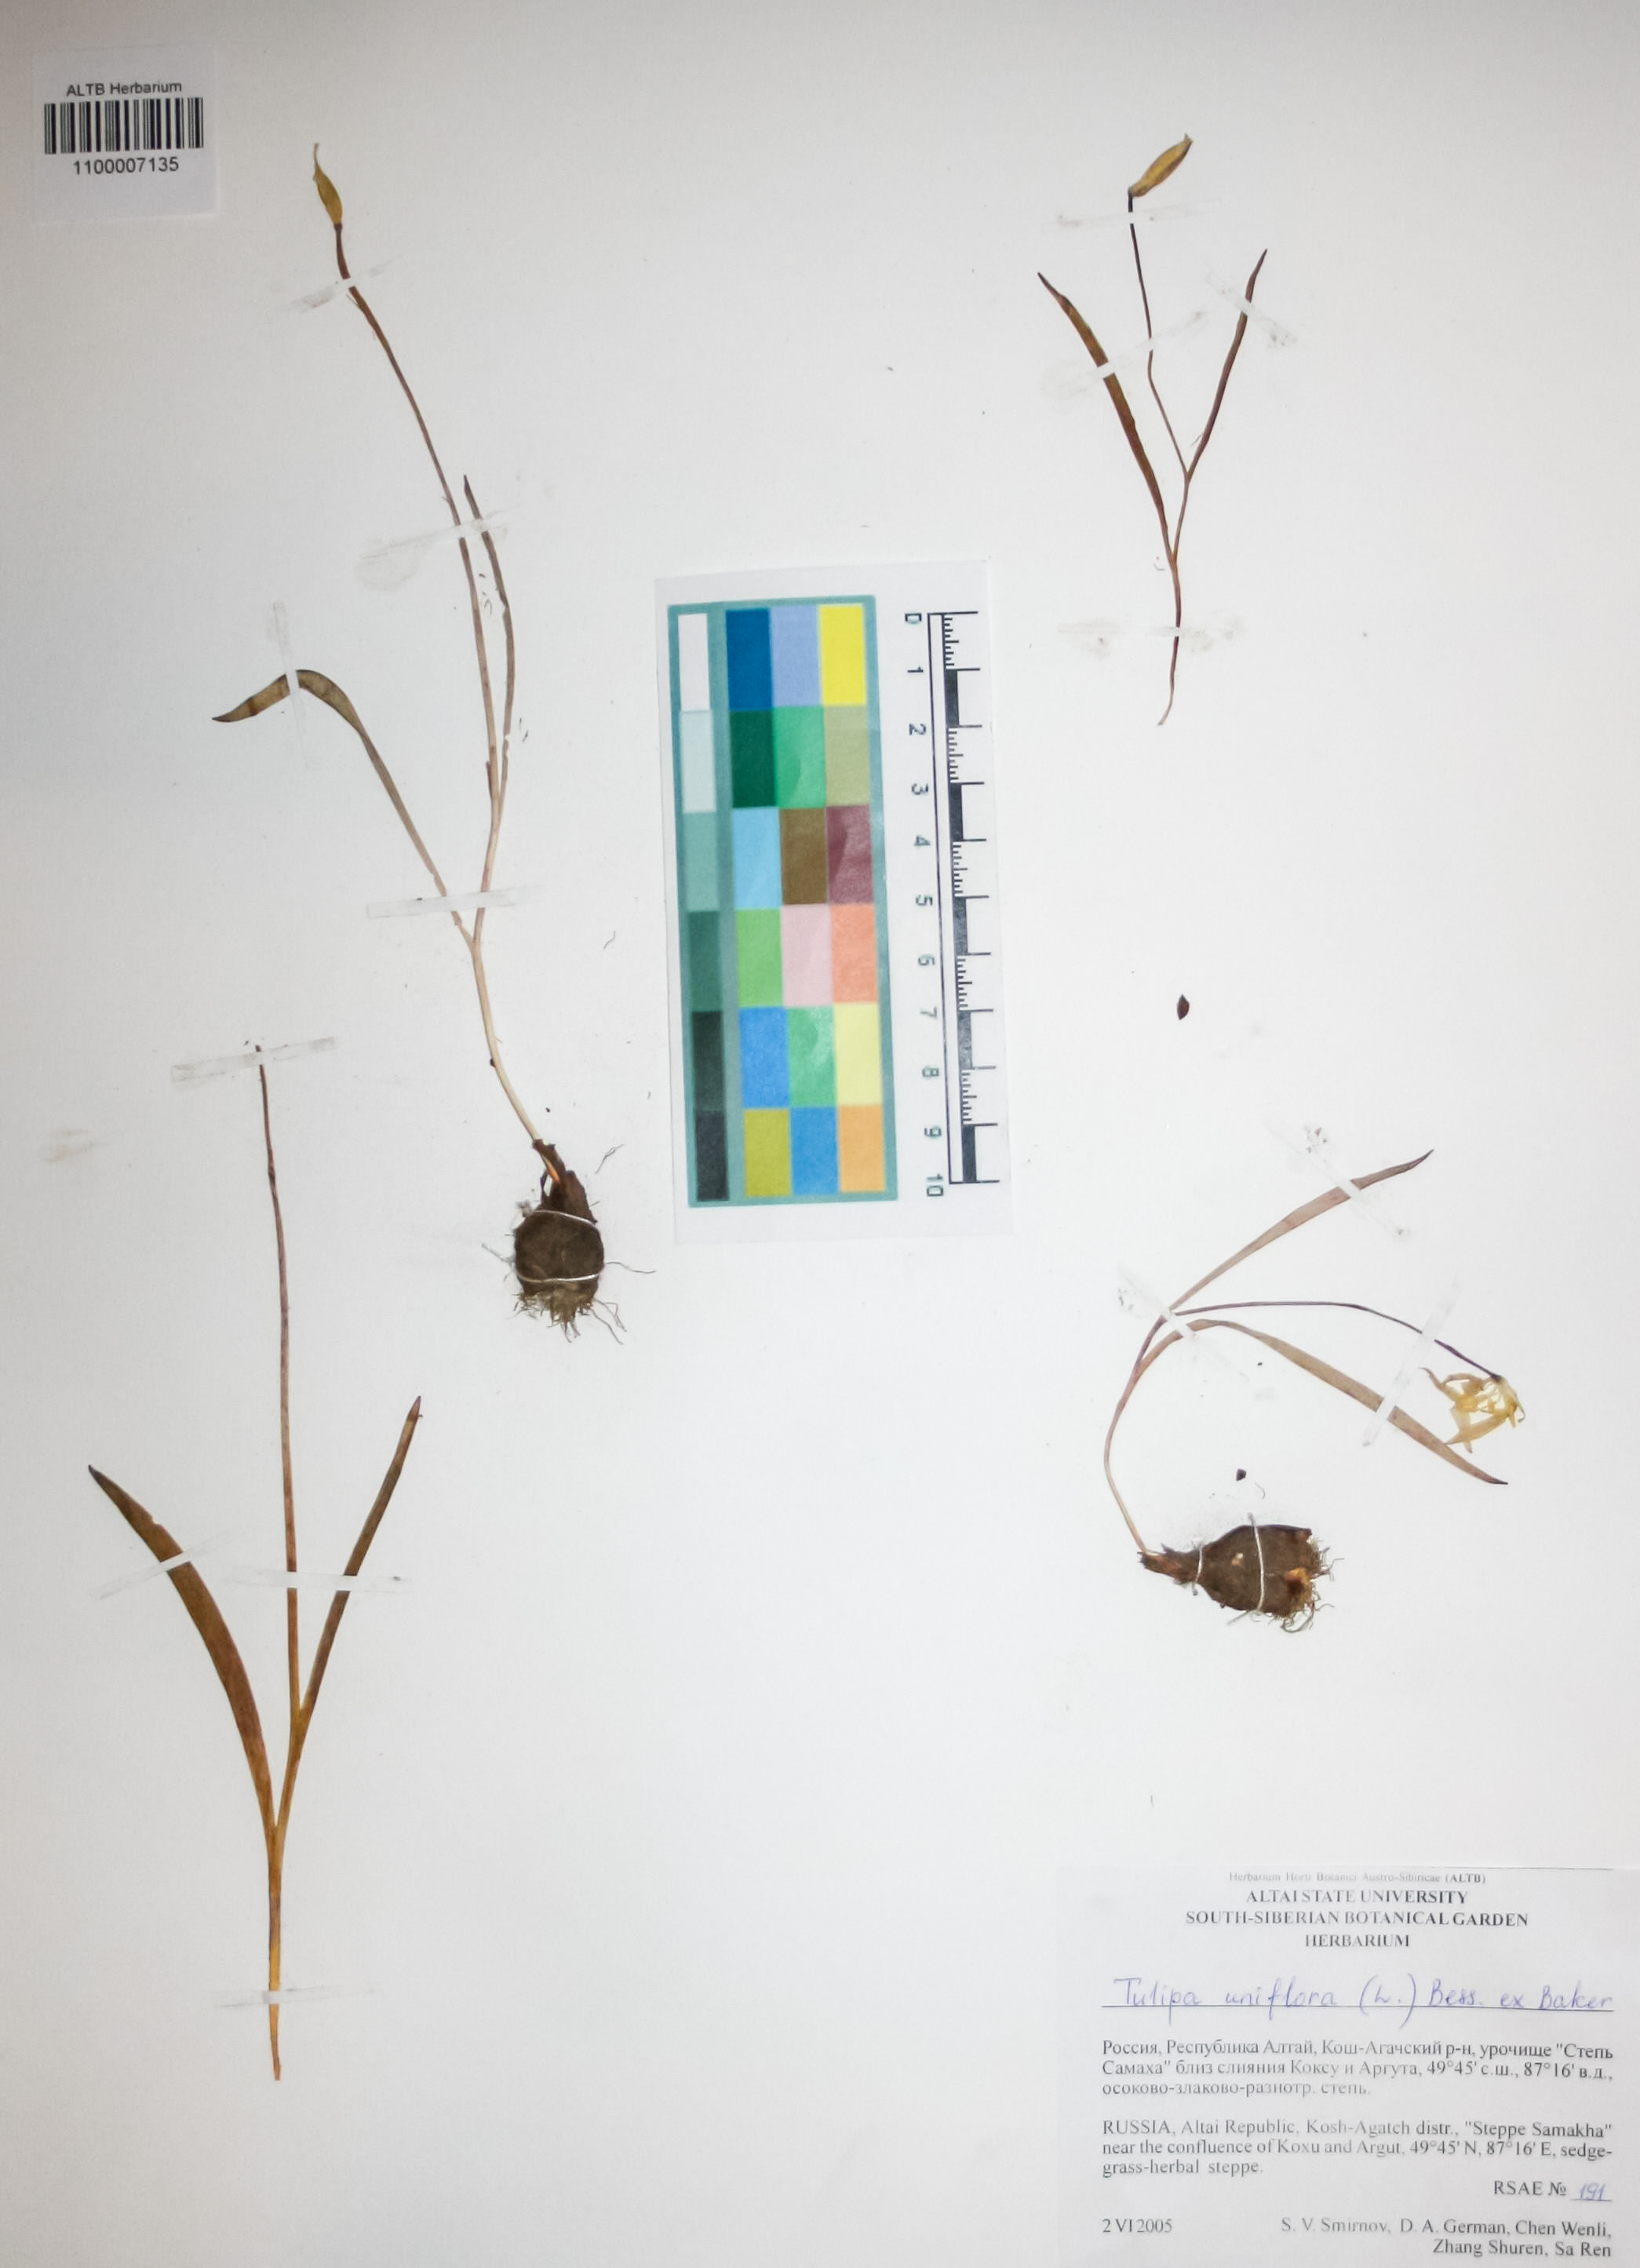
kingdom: Plantae
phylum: Tracheophyta
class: Liliopsida
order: Liliales
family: Liliaceae
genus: Tulipa
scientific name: Tulipa uniflora
